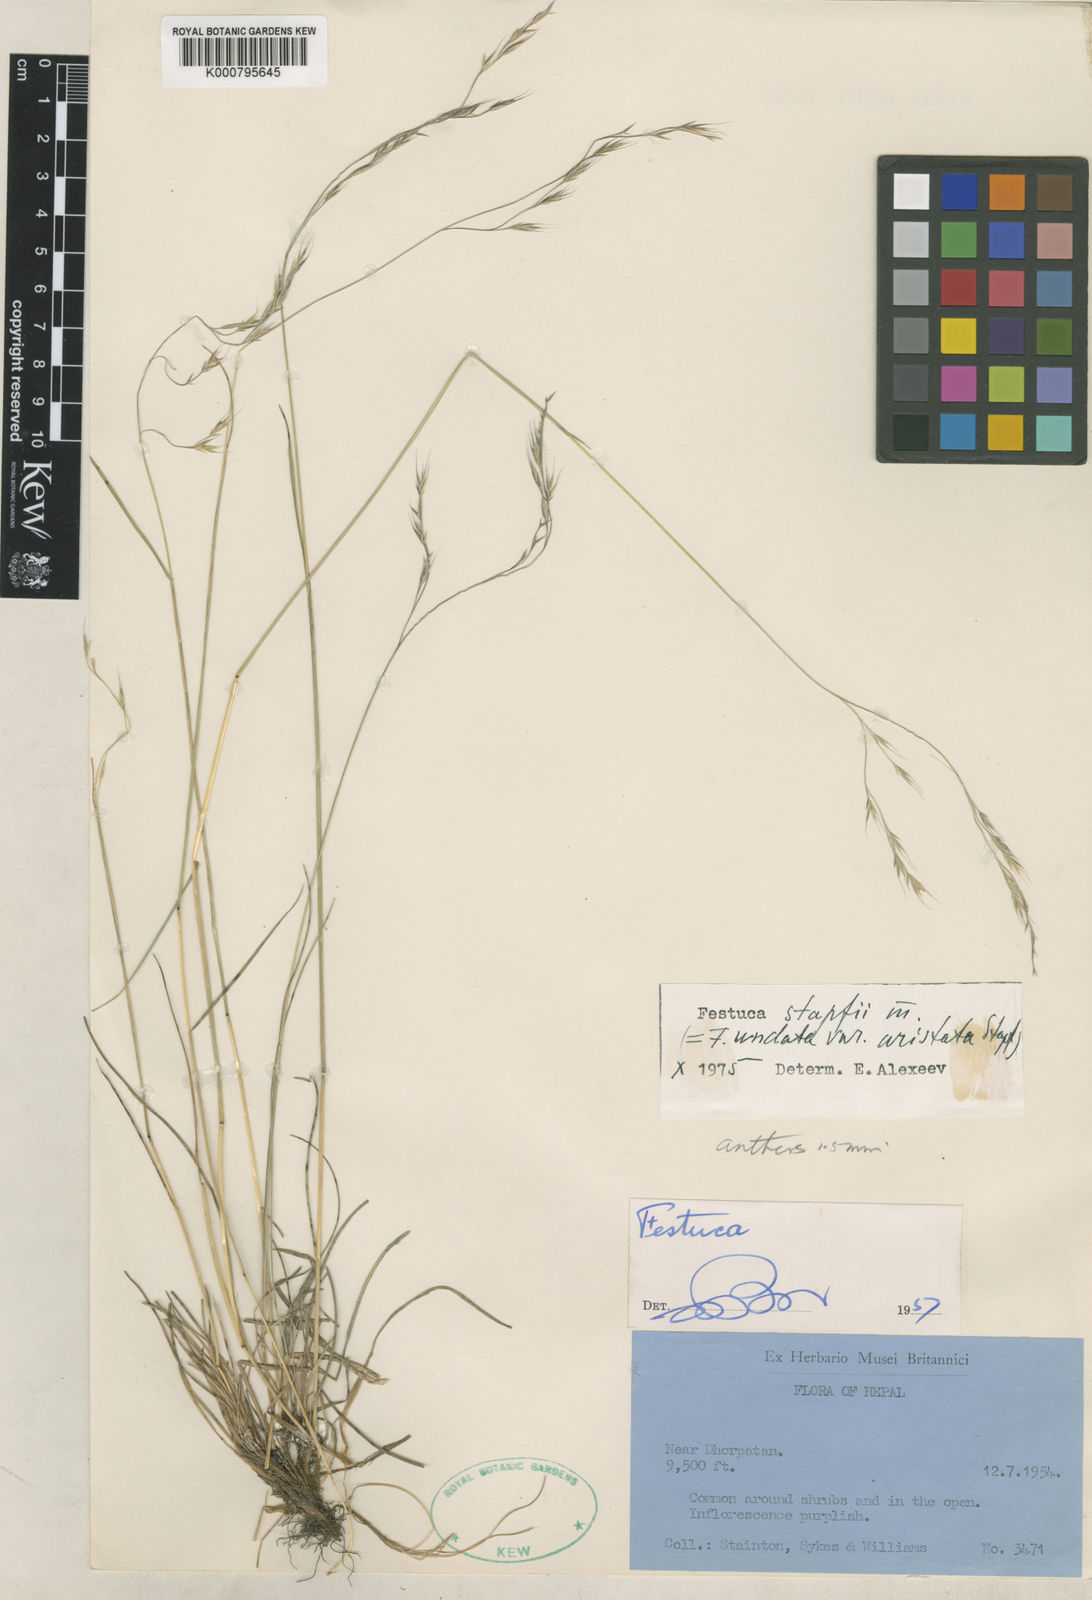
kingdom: Plantae
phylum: Tracheophyta
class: Liliopsida
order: Poales
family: Poaceae
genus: Festuca
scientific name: Festuca undata
